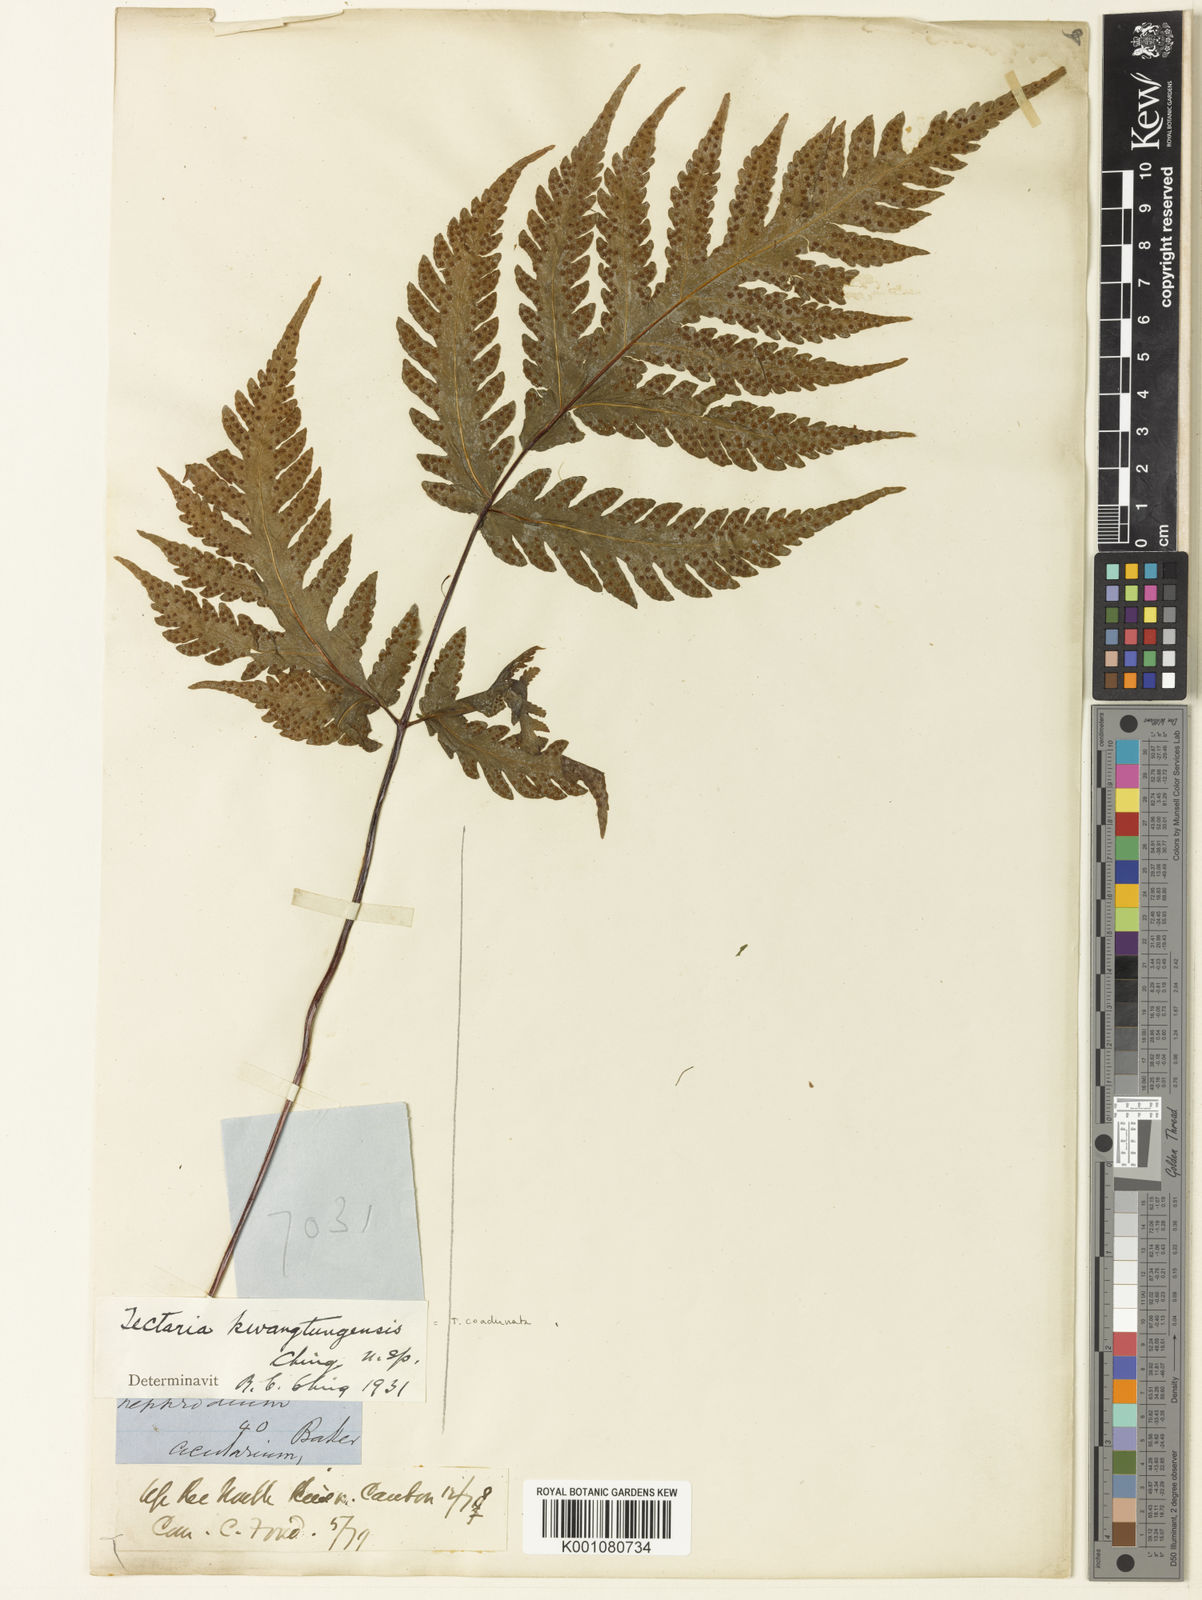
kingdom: Plantae
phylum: Tracheophyta
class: Polypodiopsida
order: Polypodiales
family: Tectariaceae
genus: Tectaria
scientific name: Tectaria coadunata
